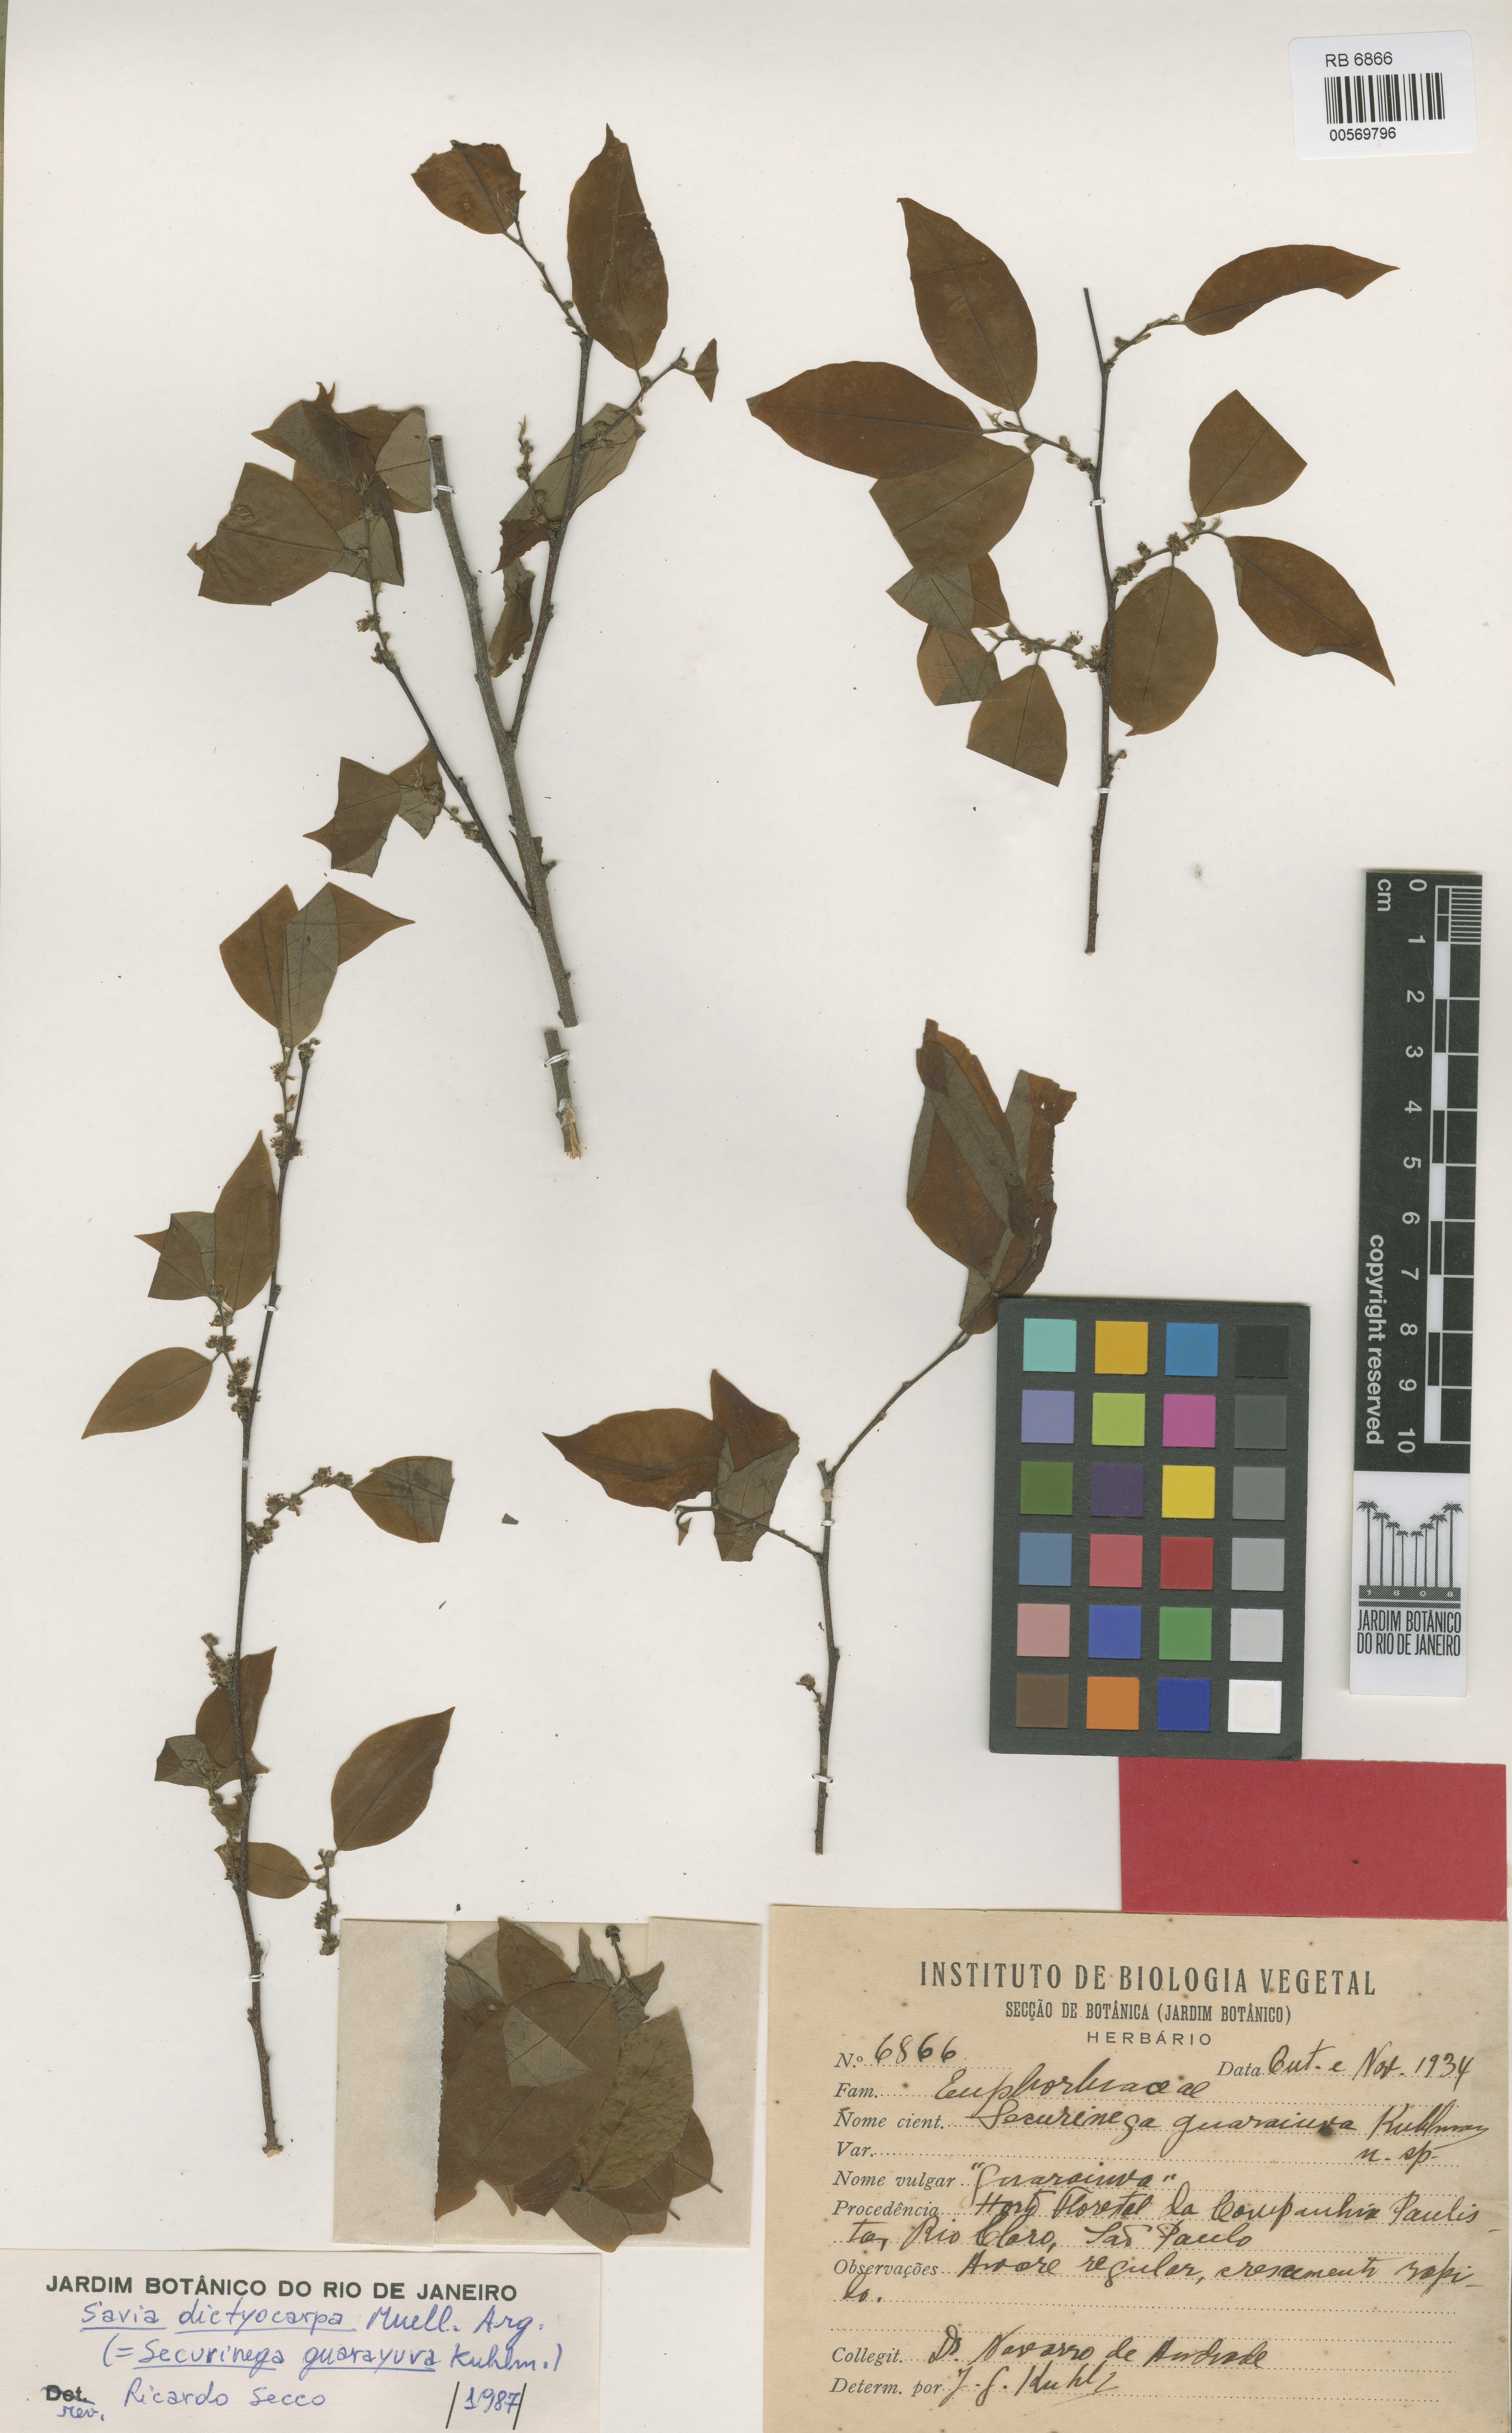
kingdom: Plantae
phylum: Tracheophyta
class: Magnoliopsida
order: Malpighiales
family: Phyllanthaceae
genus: Savia
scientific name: Savia dictyocarpa
